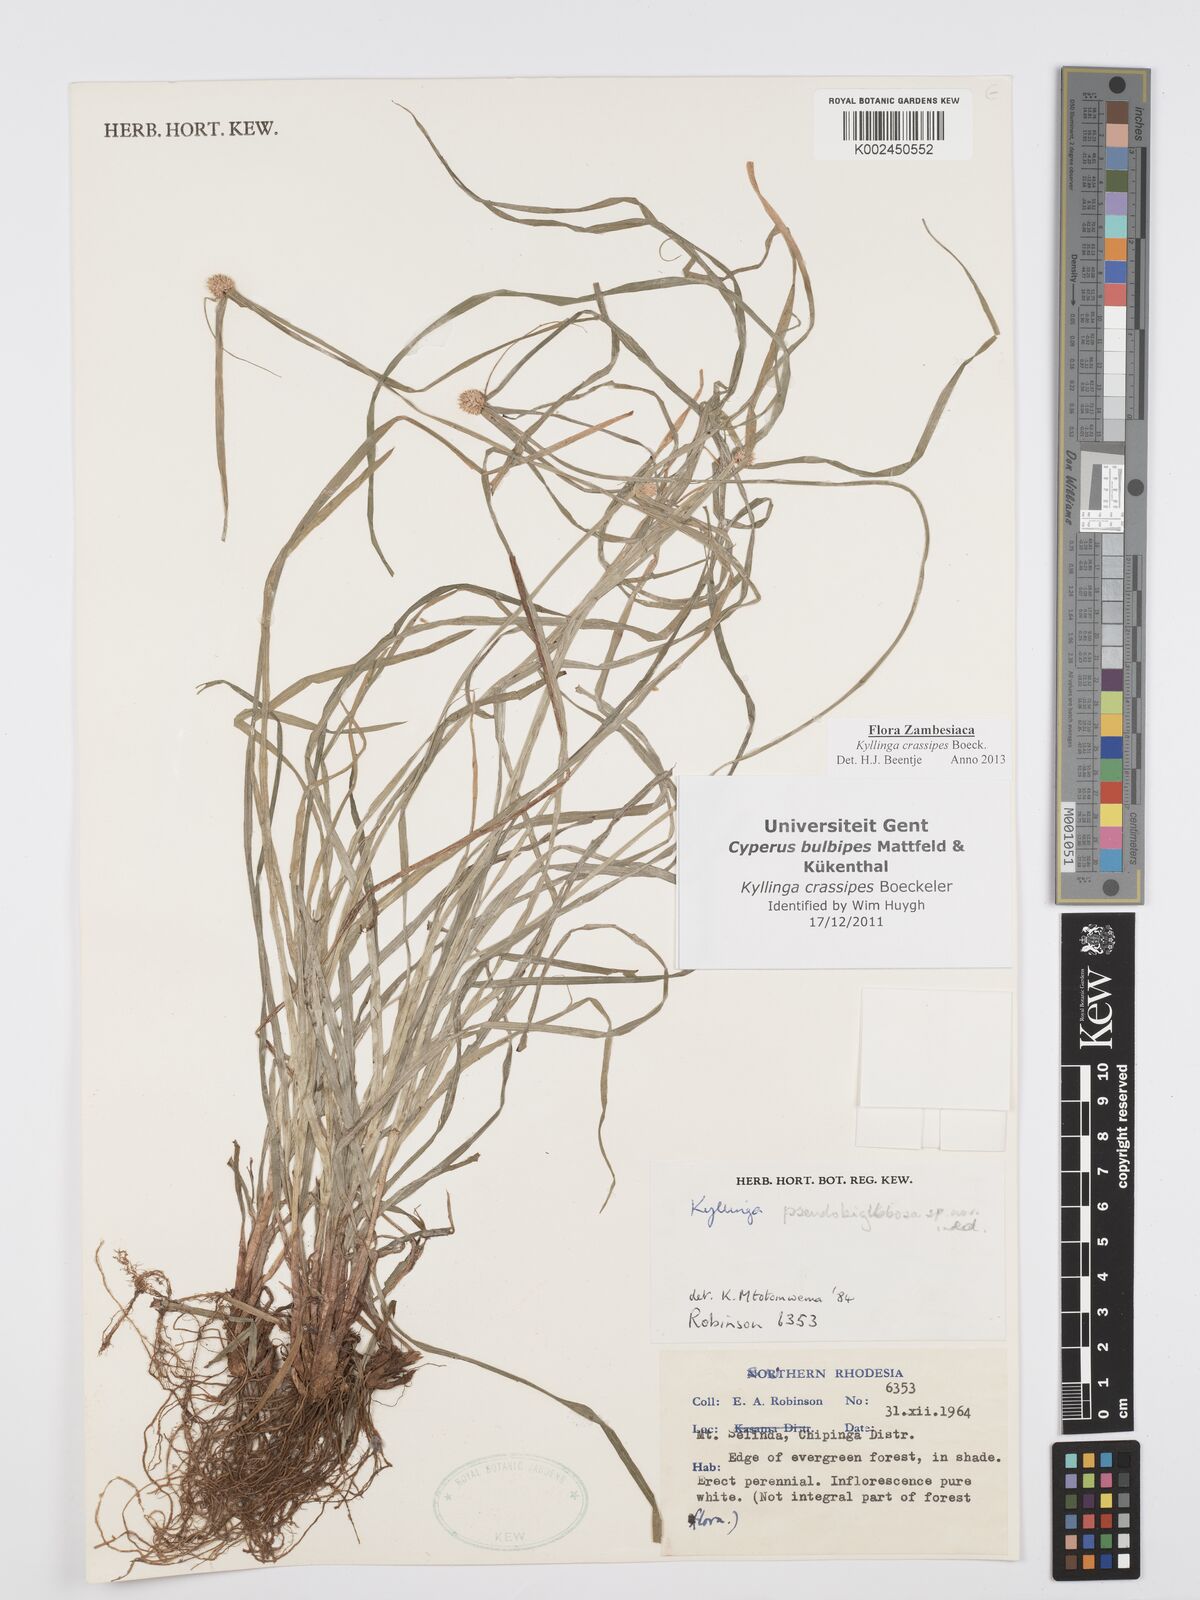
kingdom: Plantae
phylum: Tracheophyta
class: Liliopsida
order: Poales
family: Cyperaceae
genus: Cyperus
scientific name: Cyperus crassipes
